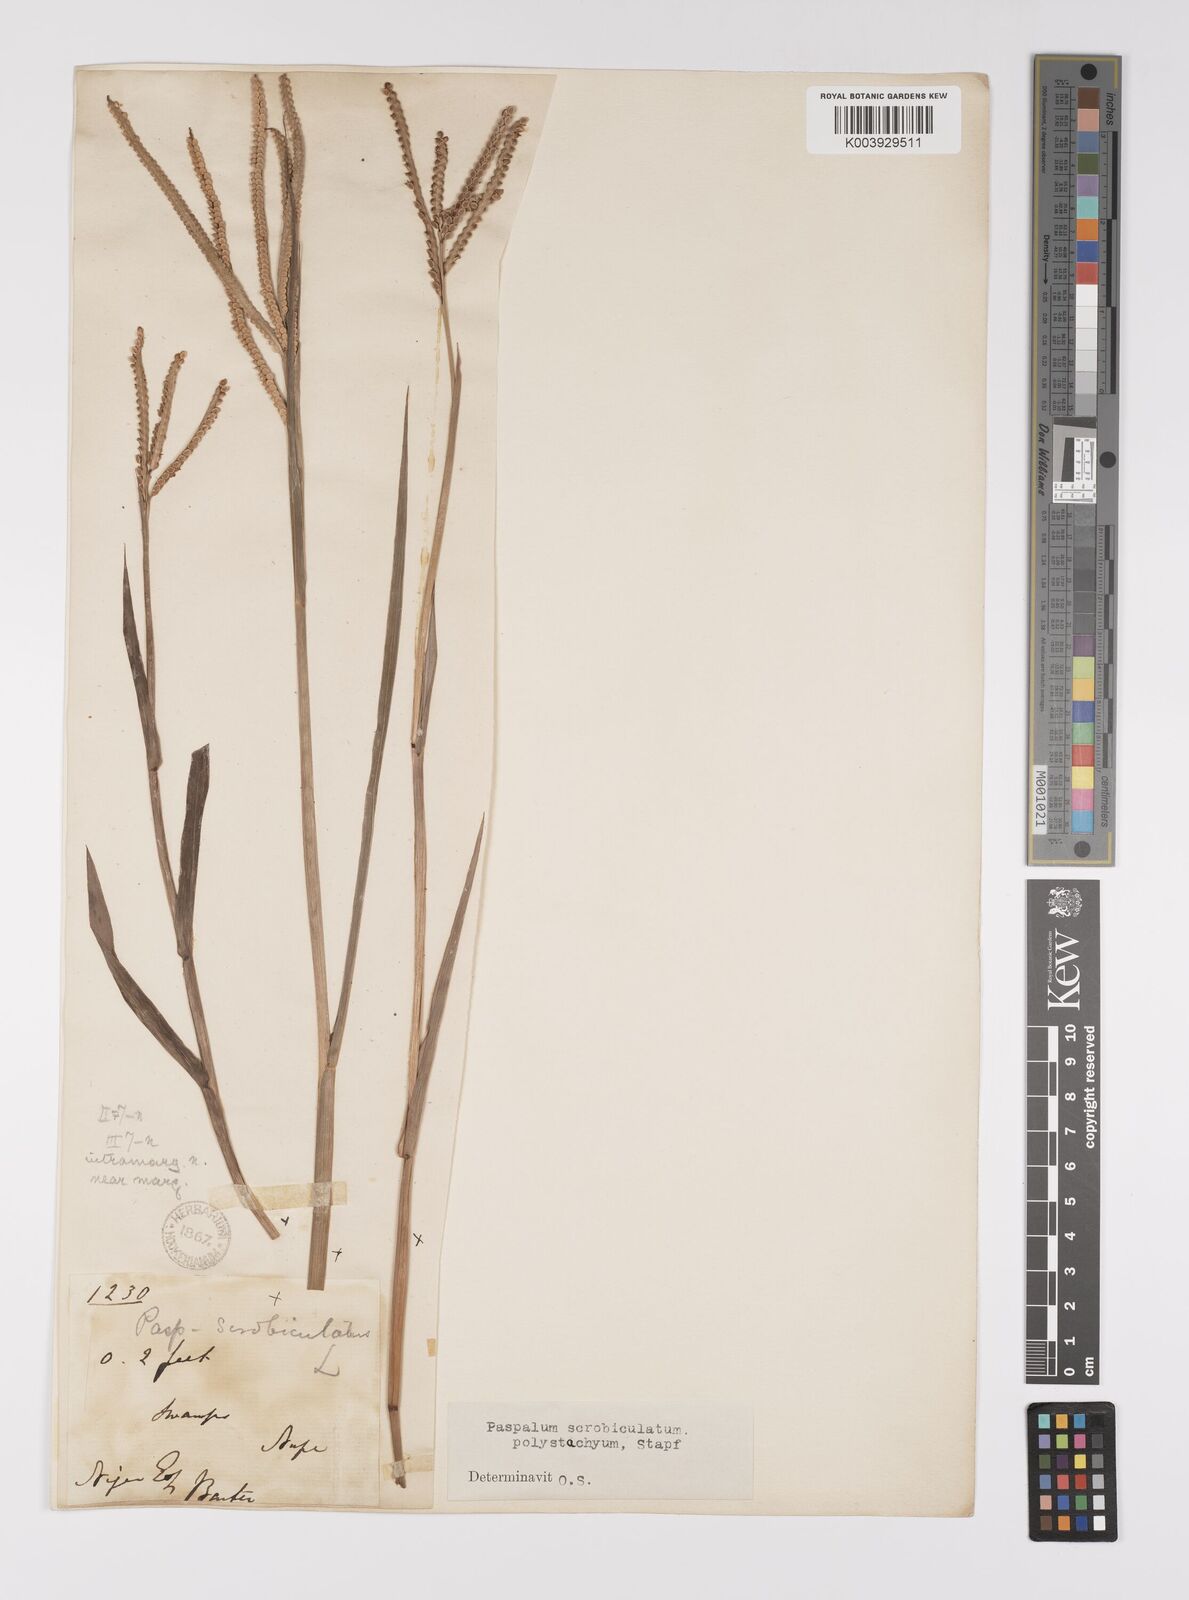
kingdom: Plantae
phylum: Tracheophyta
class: Liliopsida
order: Poales
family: Poaceae
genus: Paspalum
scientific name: Paspalum scrobiculatum
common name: Kodo millet
